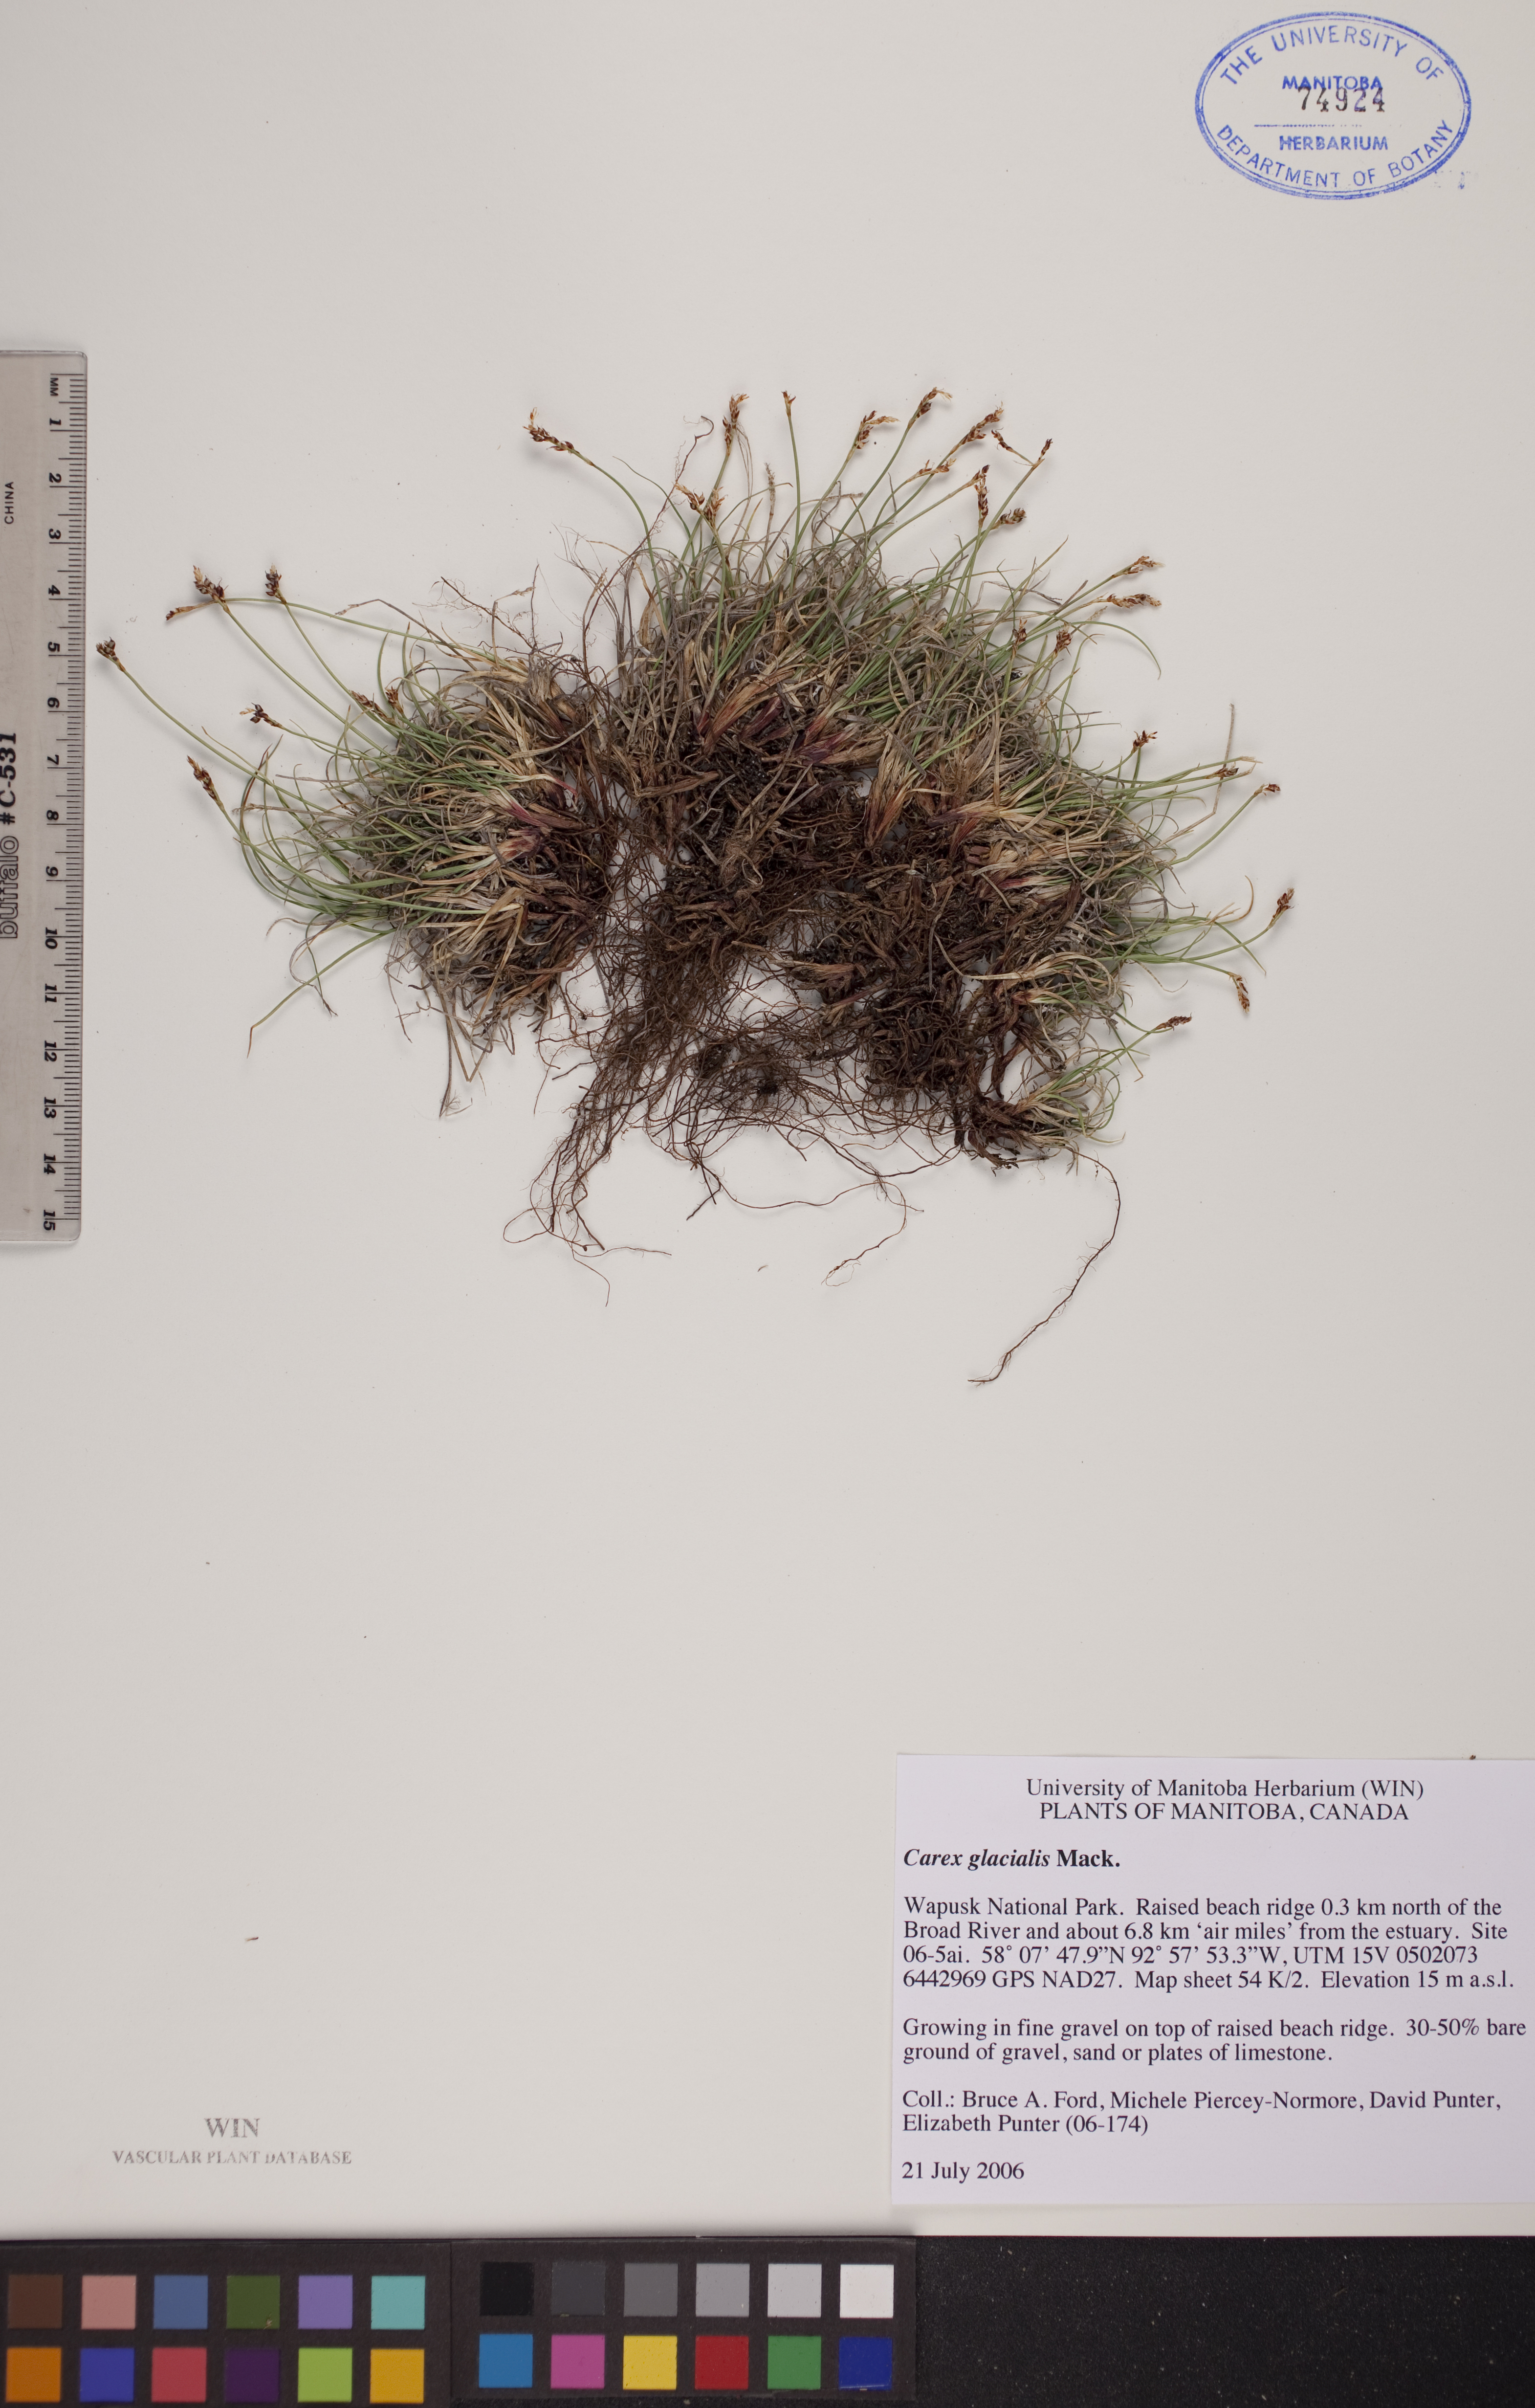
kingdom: Plantae
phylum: Tracheophyta
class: Liliopsida
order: Poales
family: Cyperaceae
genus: Carex
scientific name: Carex glacialis
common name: Newfoundland sedge
